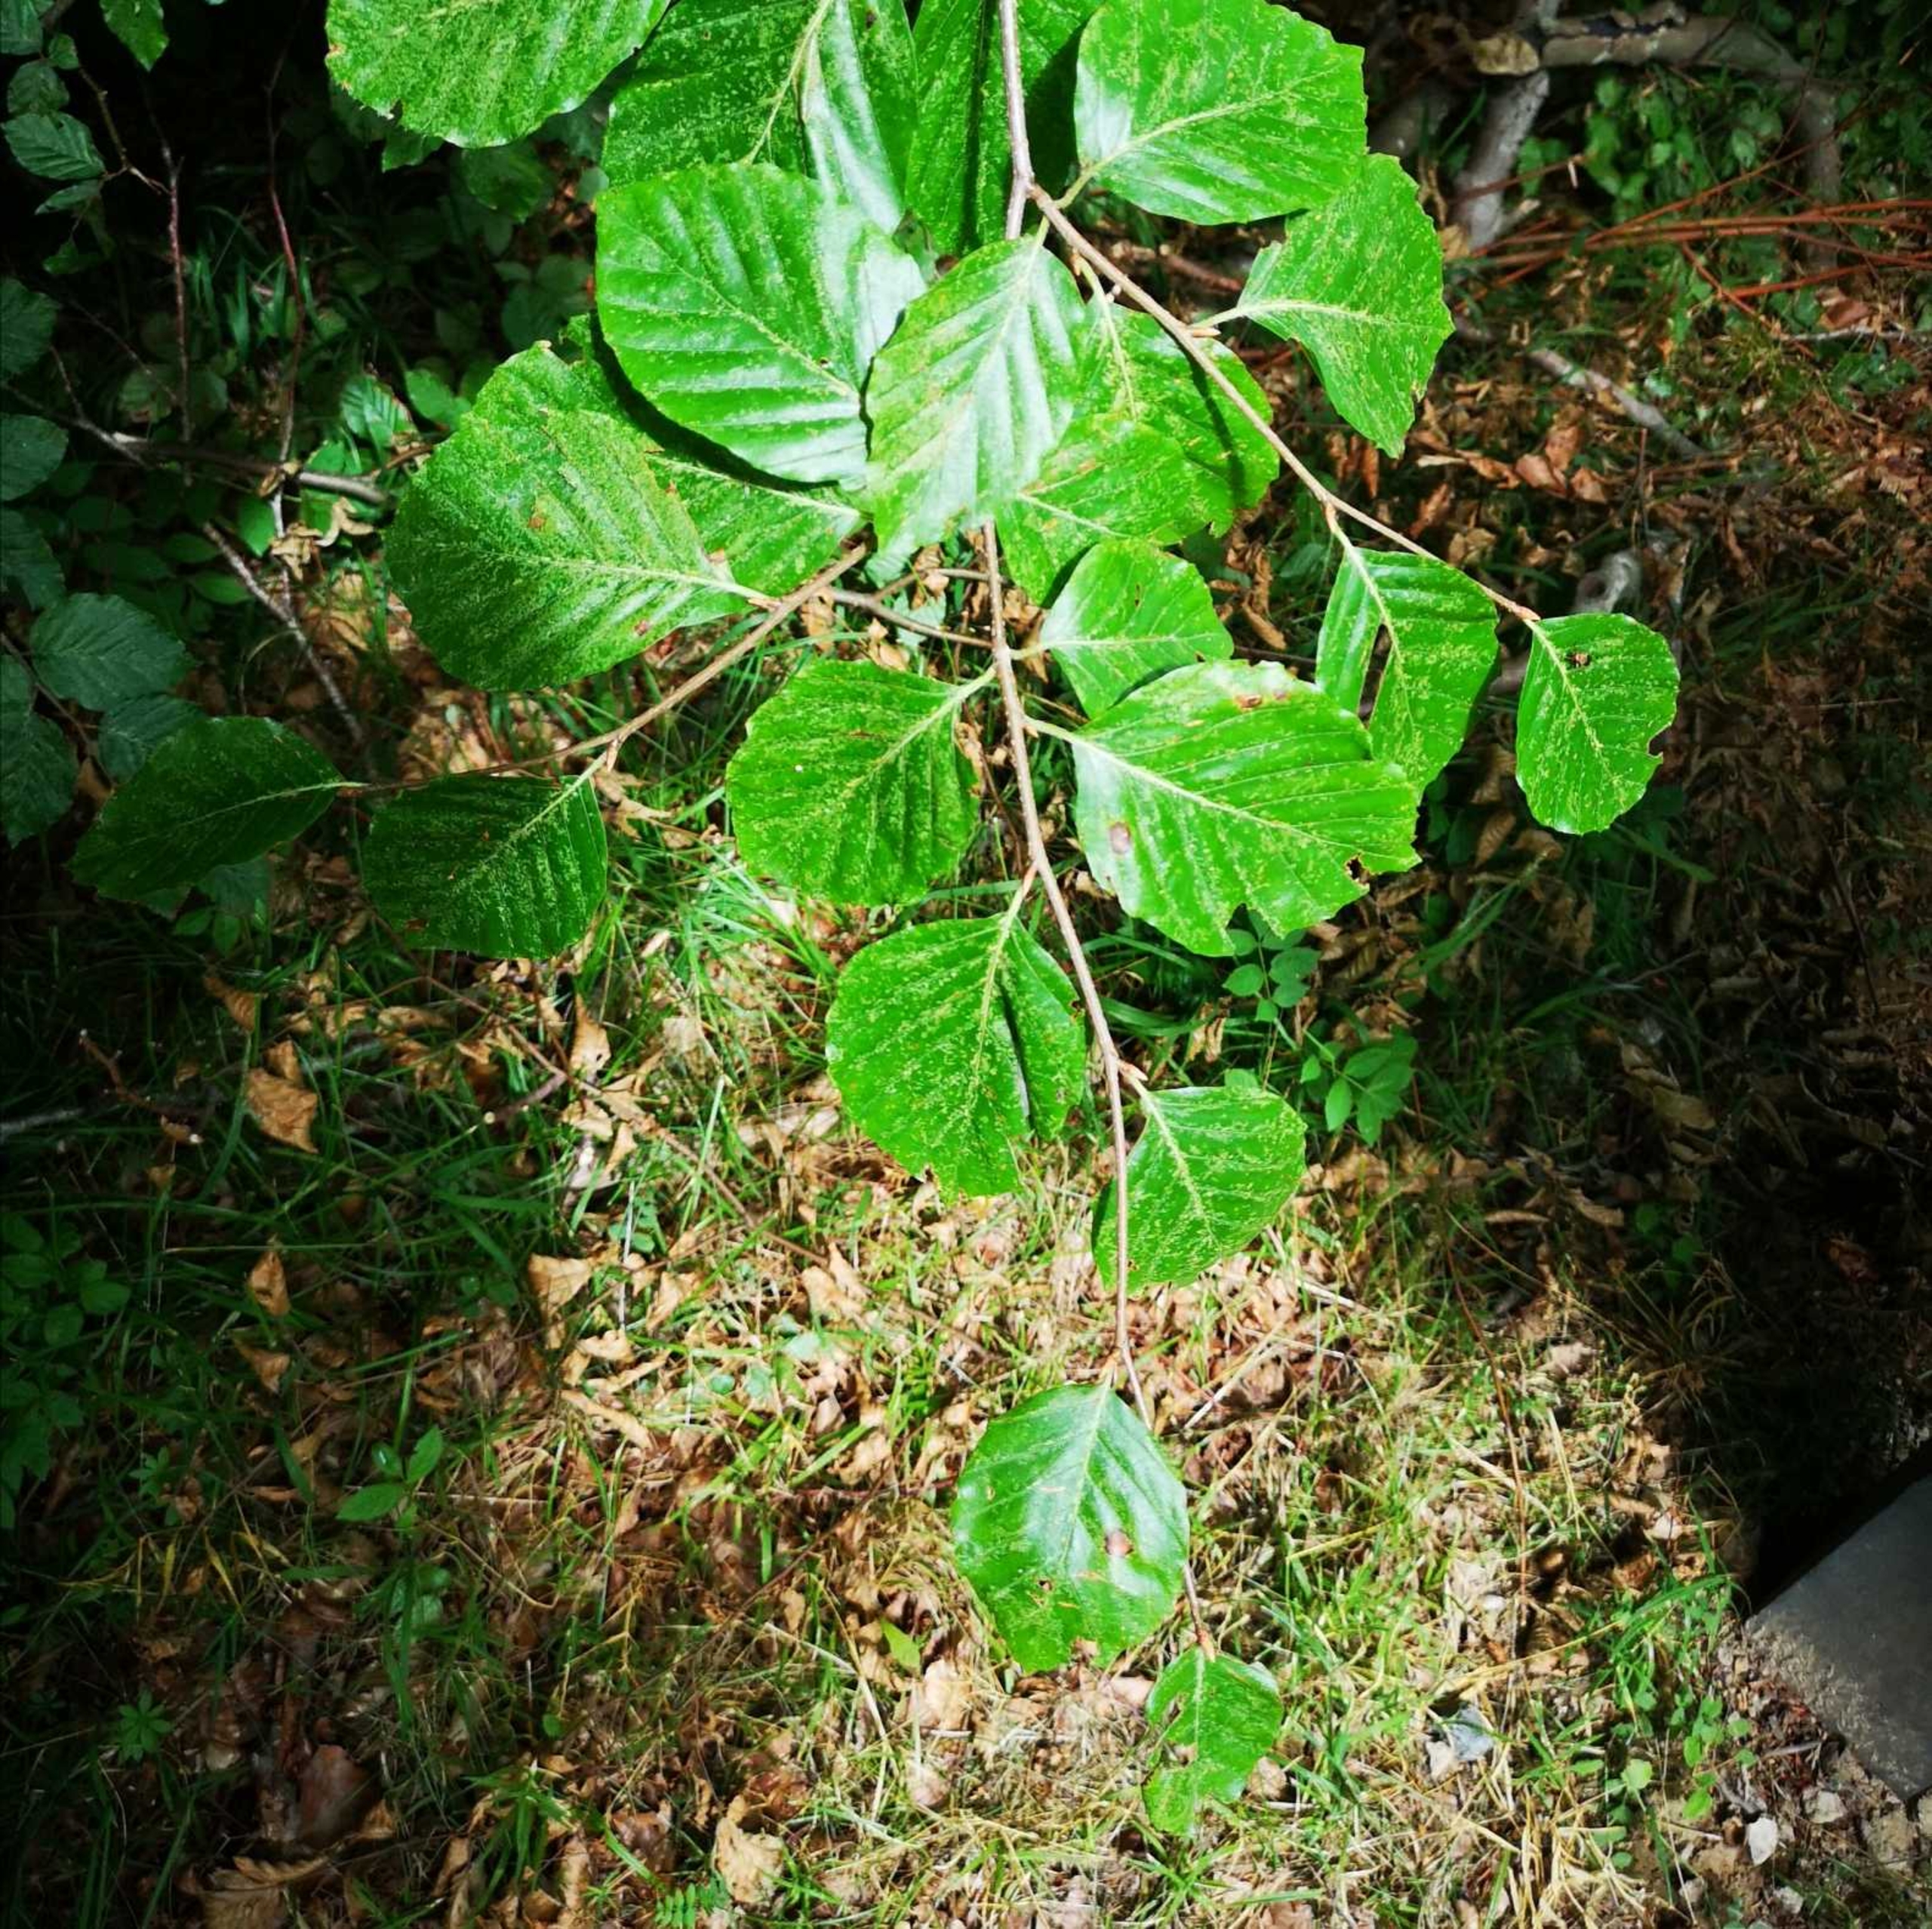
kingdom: Plantae
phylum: Tracheophyta
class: Magnoliopsida
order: Fagales
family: Fagaceae
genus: Fagus
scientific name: Fagus sylvatica
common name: Bøg
